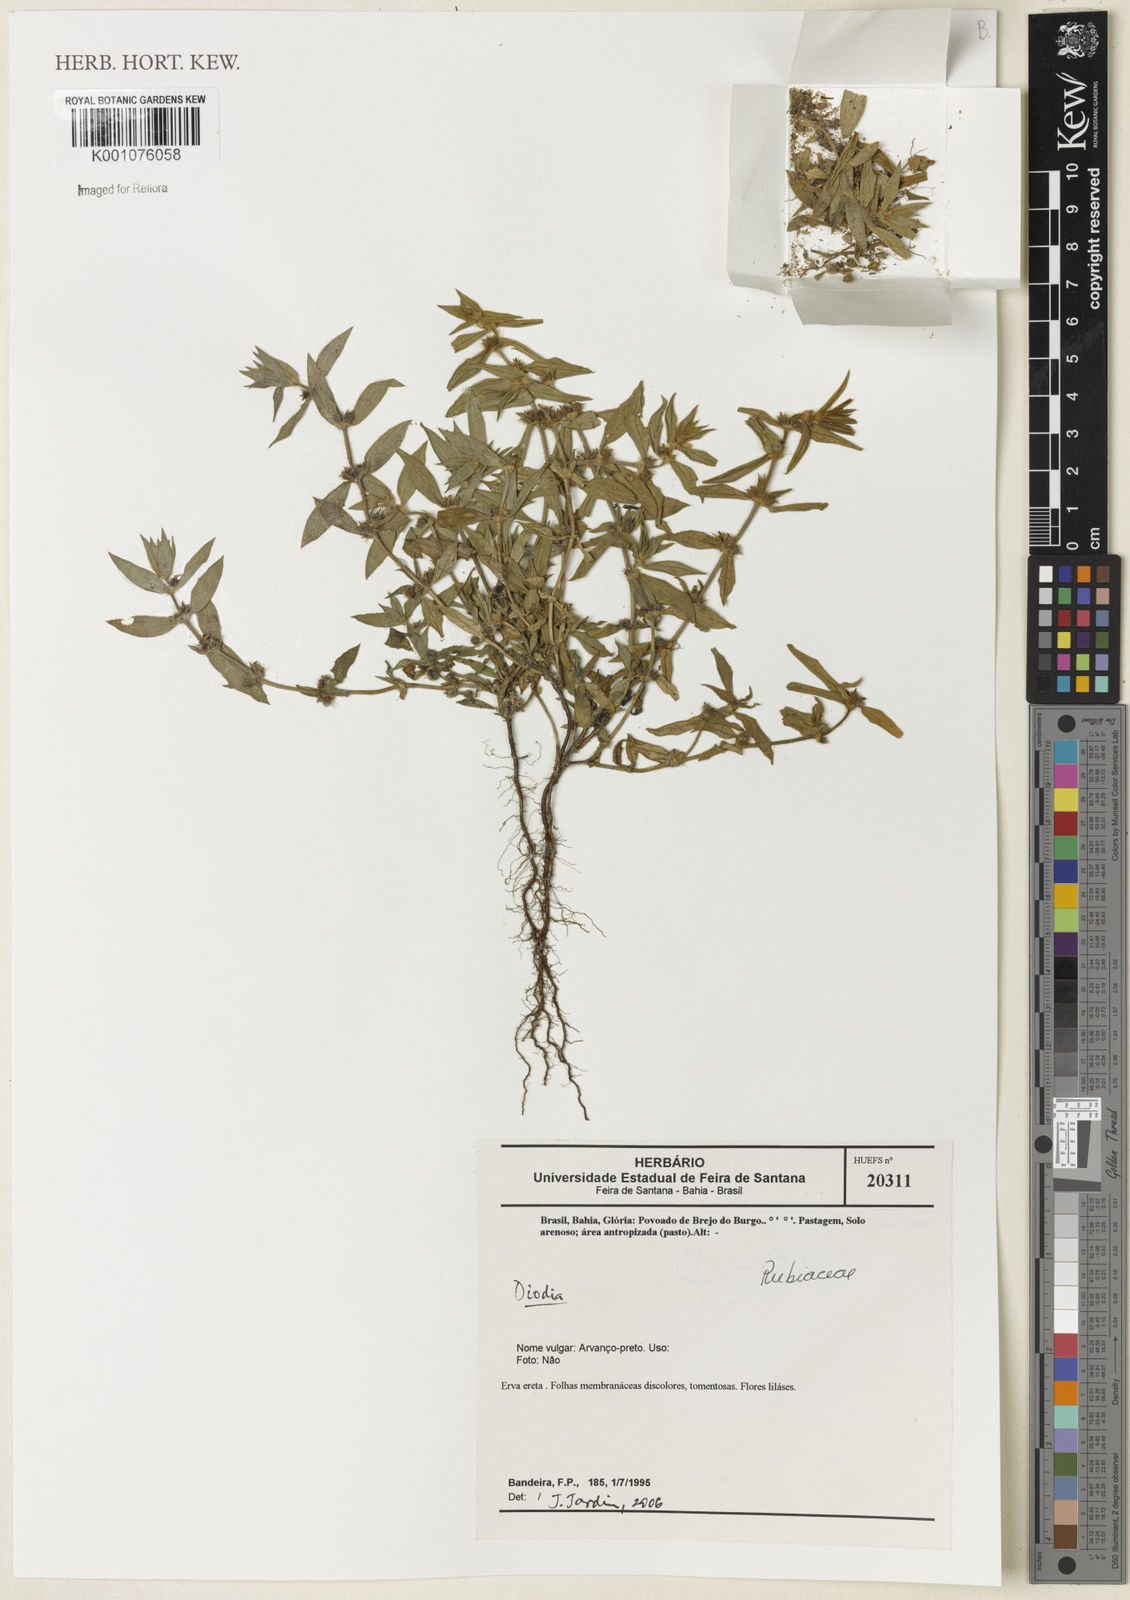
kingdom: Plantae
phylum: Tracheophyta
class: Magnoliopsida
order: Gentianales
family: Rubiaceae
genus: Diodia
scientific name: Diodia
